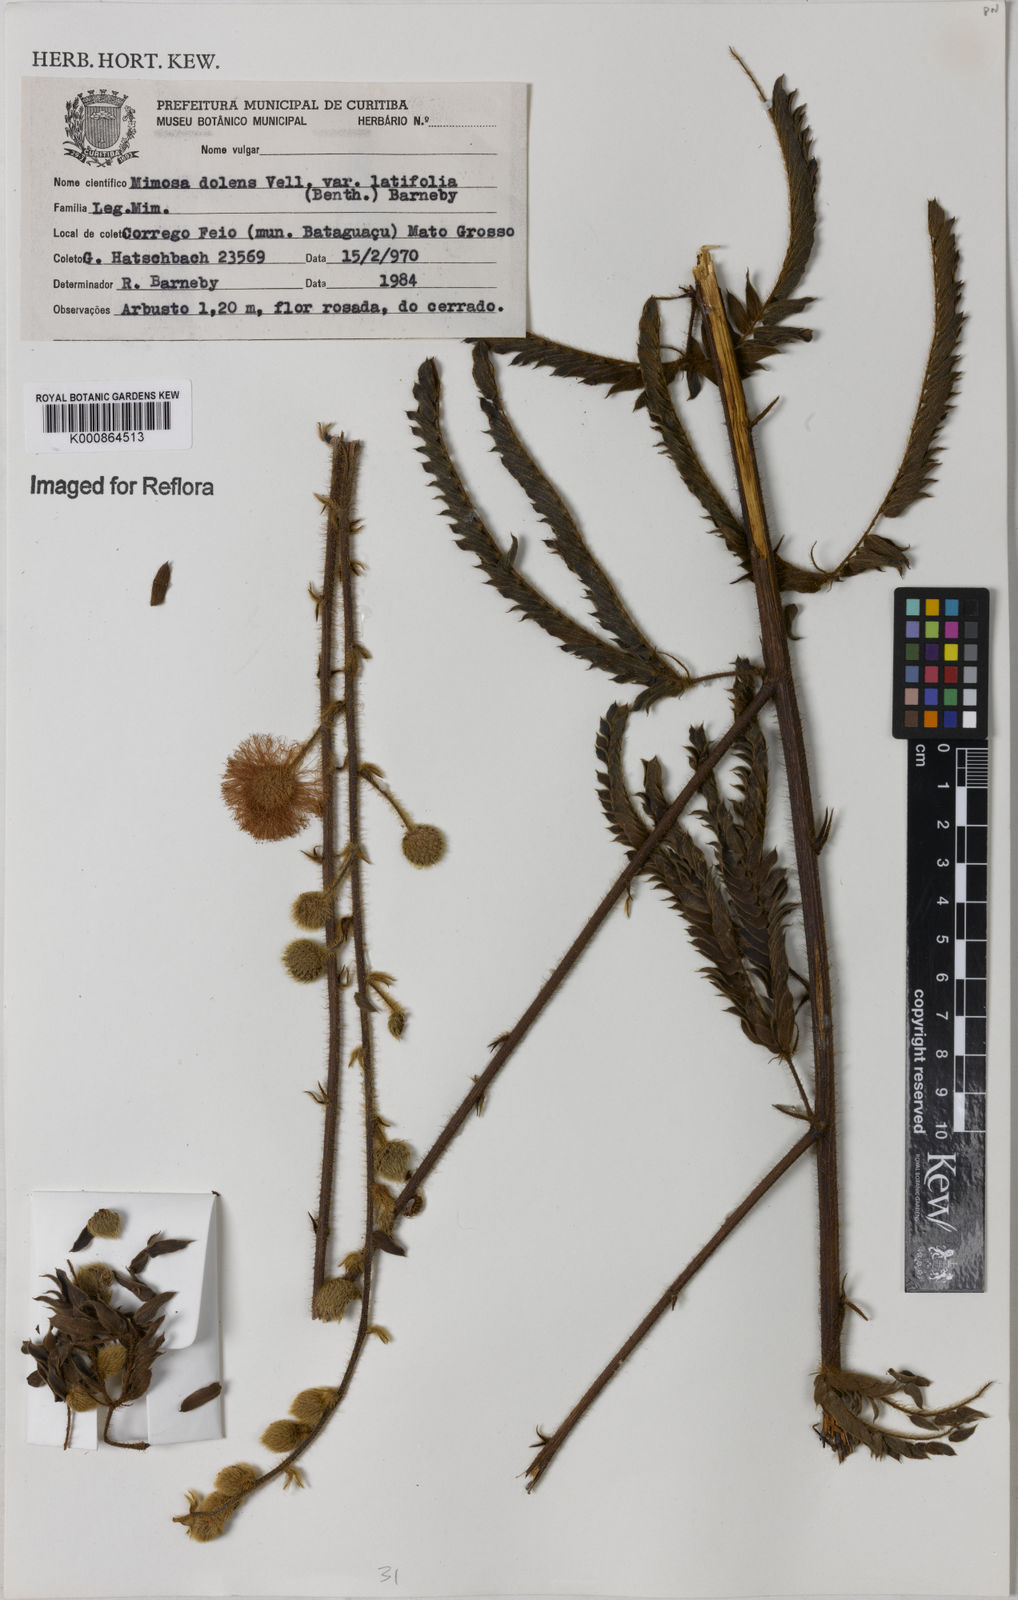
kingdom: Plantae
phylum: Tracheophyta
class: Magnoliopsida
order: Fabales
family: Fabaceae
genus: Mimosa
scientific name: Mimosa dolens
